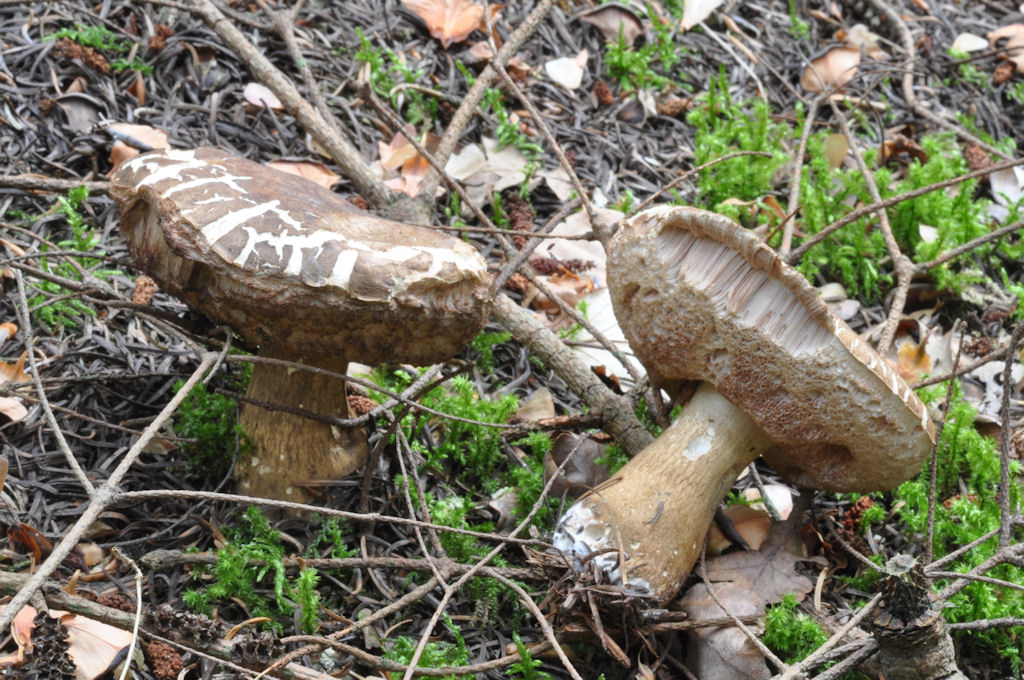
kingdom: Fungi
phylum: Basidiomycota
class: Agaricomycetes
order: Boletales
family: Boletaceae
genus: Tylopilus
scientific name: Tylopilus felleus
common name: galderørhat
